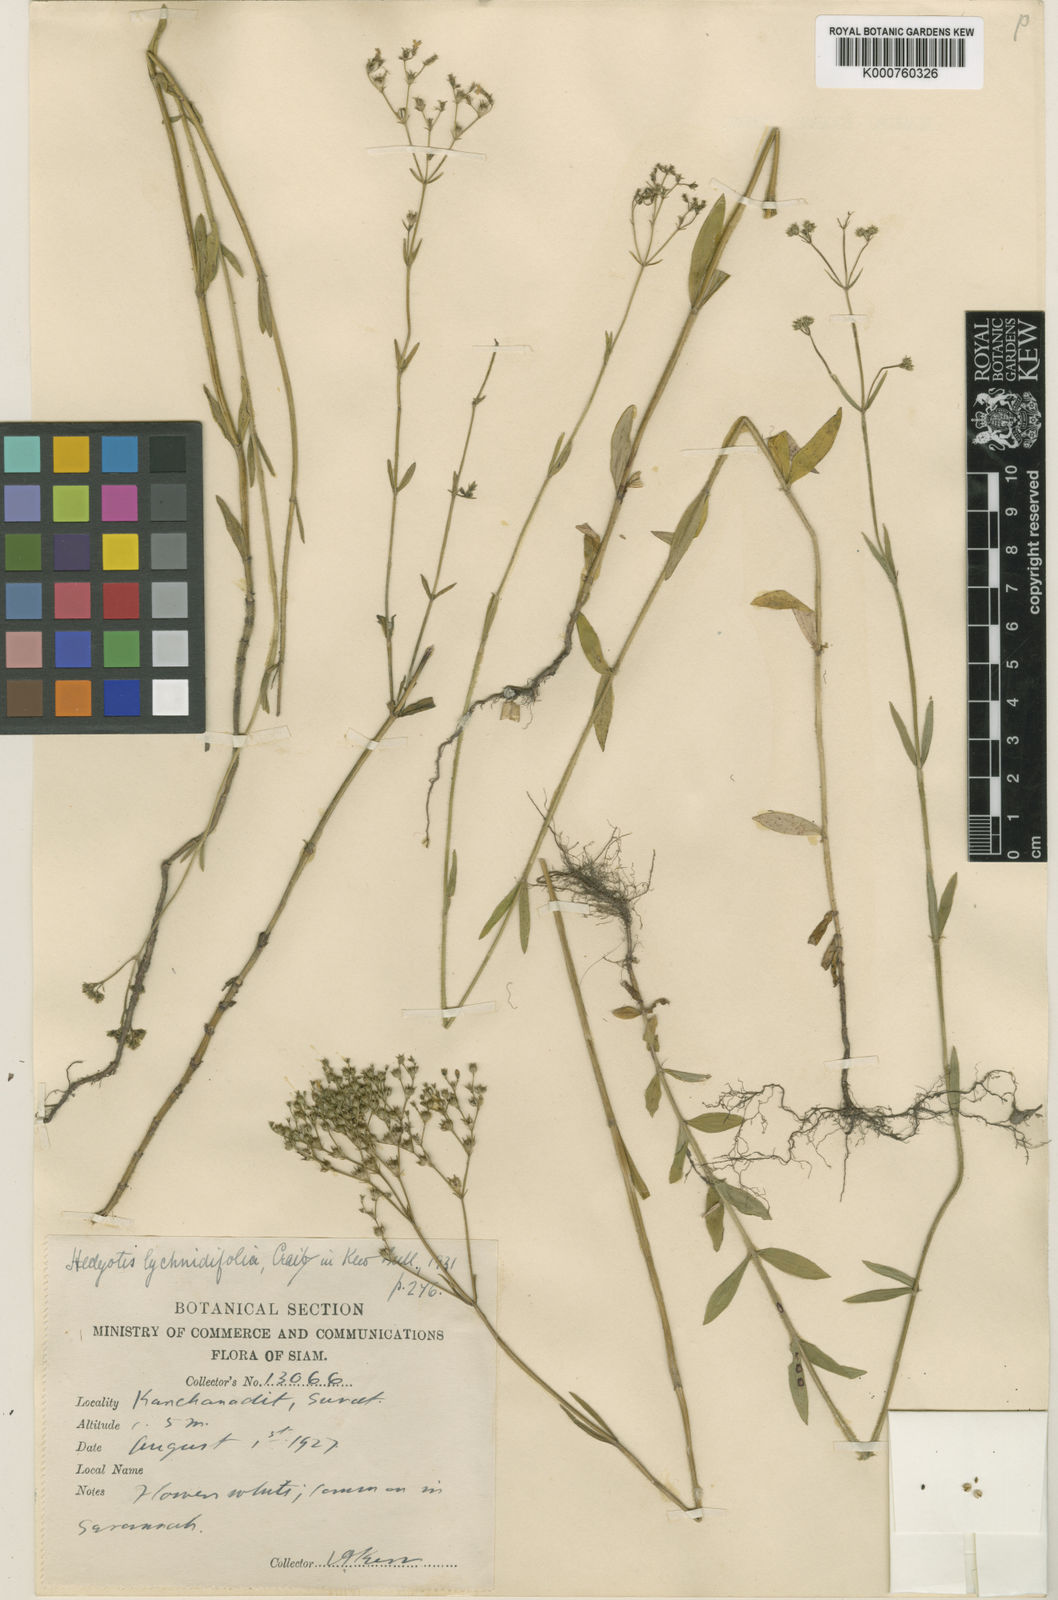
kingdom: Plantae
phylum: Tracheophyta
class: Magnoliopsida
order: Gentianales
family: Rubiaceae
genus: Hedyotis
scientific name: Hedyotis lychnidifolia
